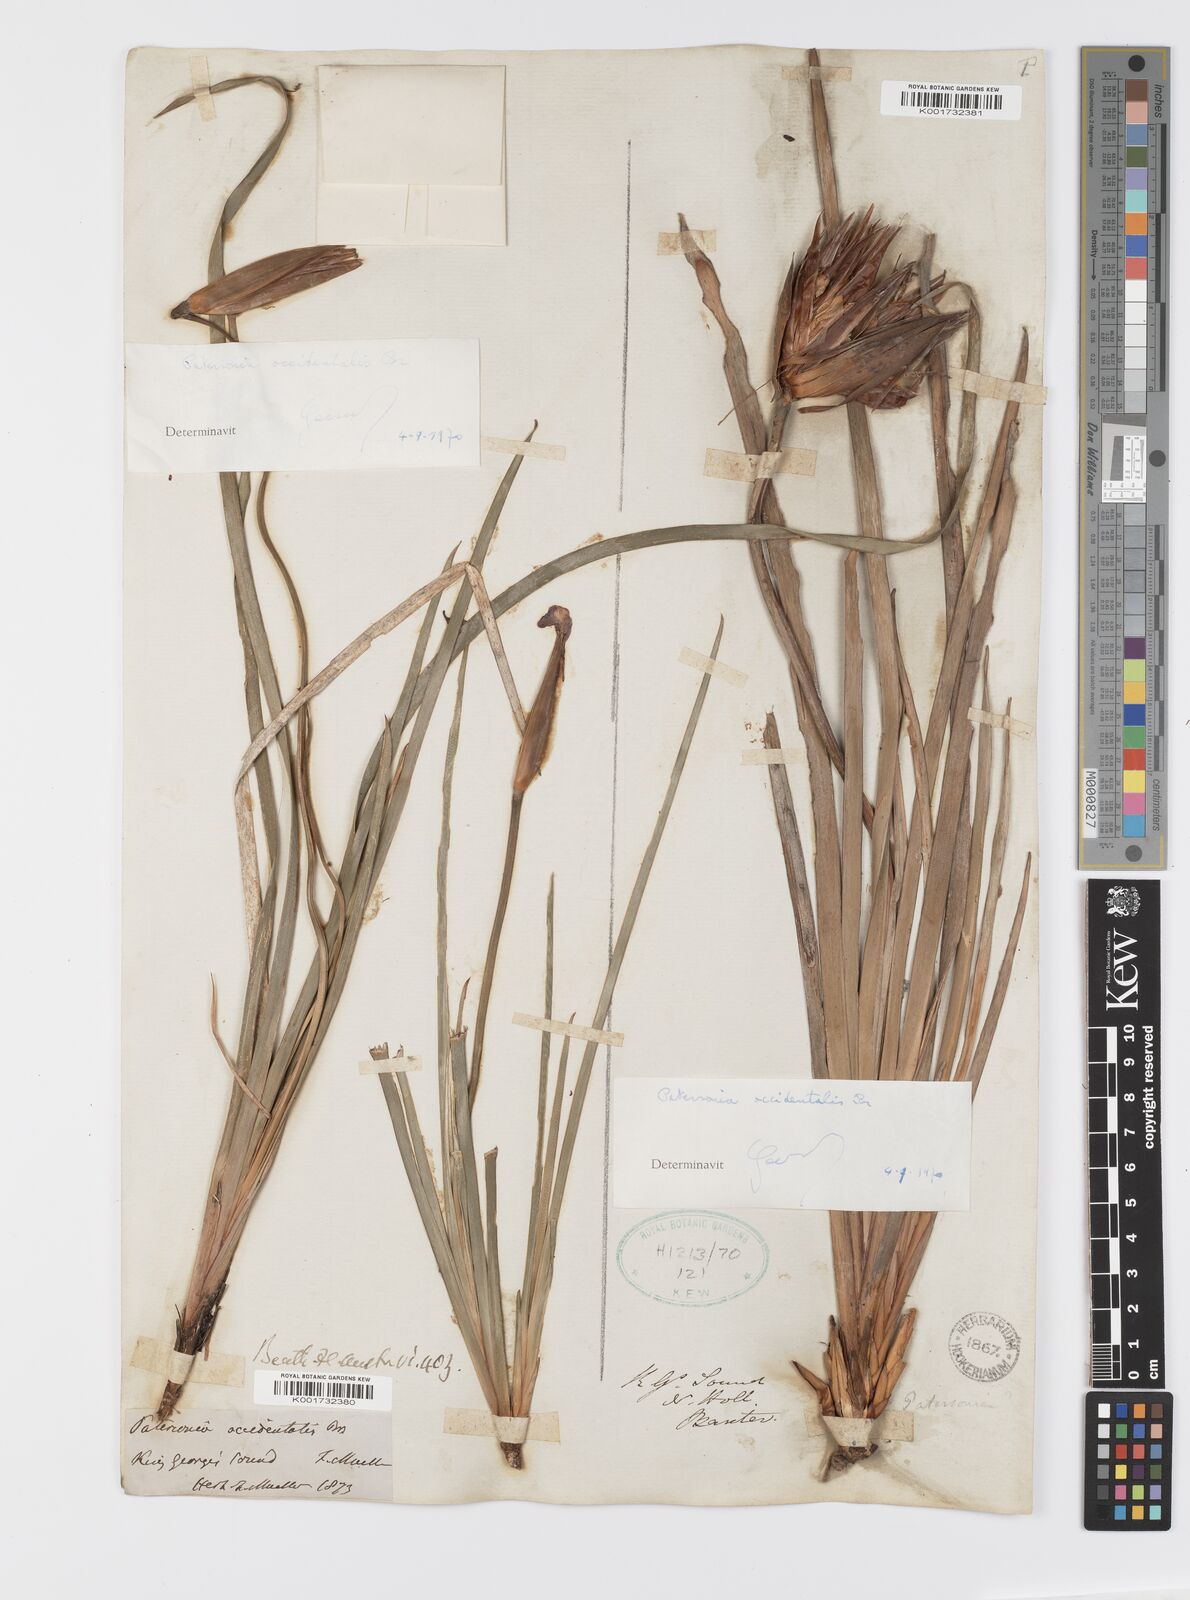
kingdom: Plantae
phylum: Tracheophyta
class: Liliopsida
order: Asparagales
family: Iridaceae
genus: Patersonia
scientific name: Patersonia occidentalis
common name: Long purple-flag
